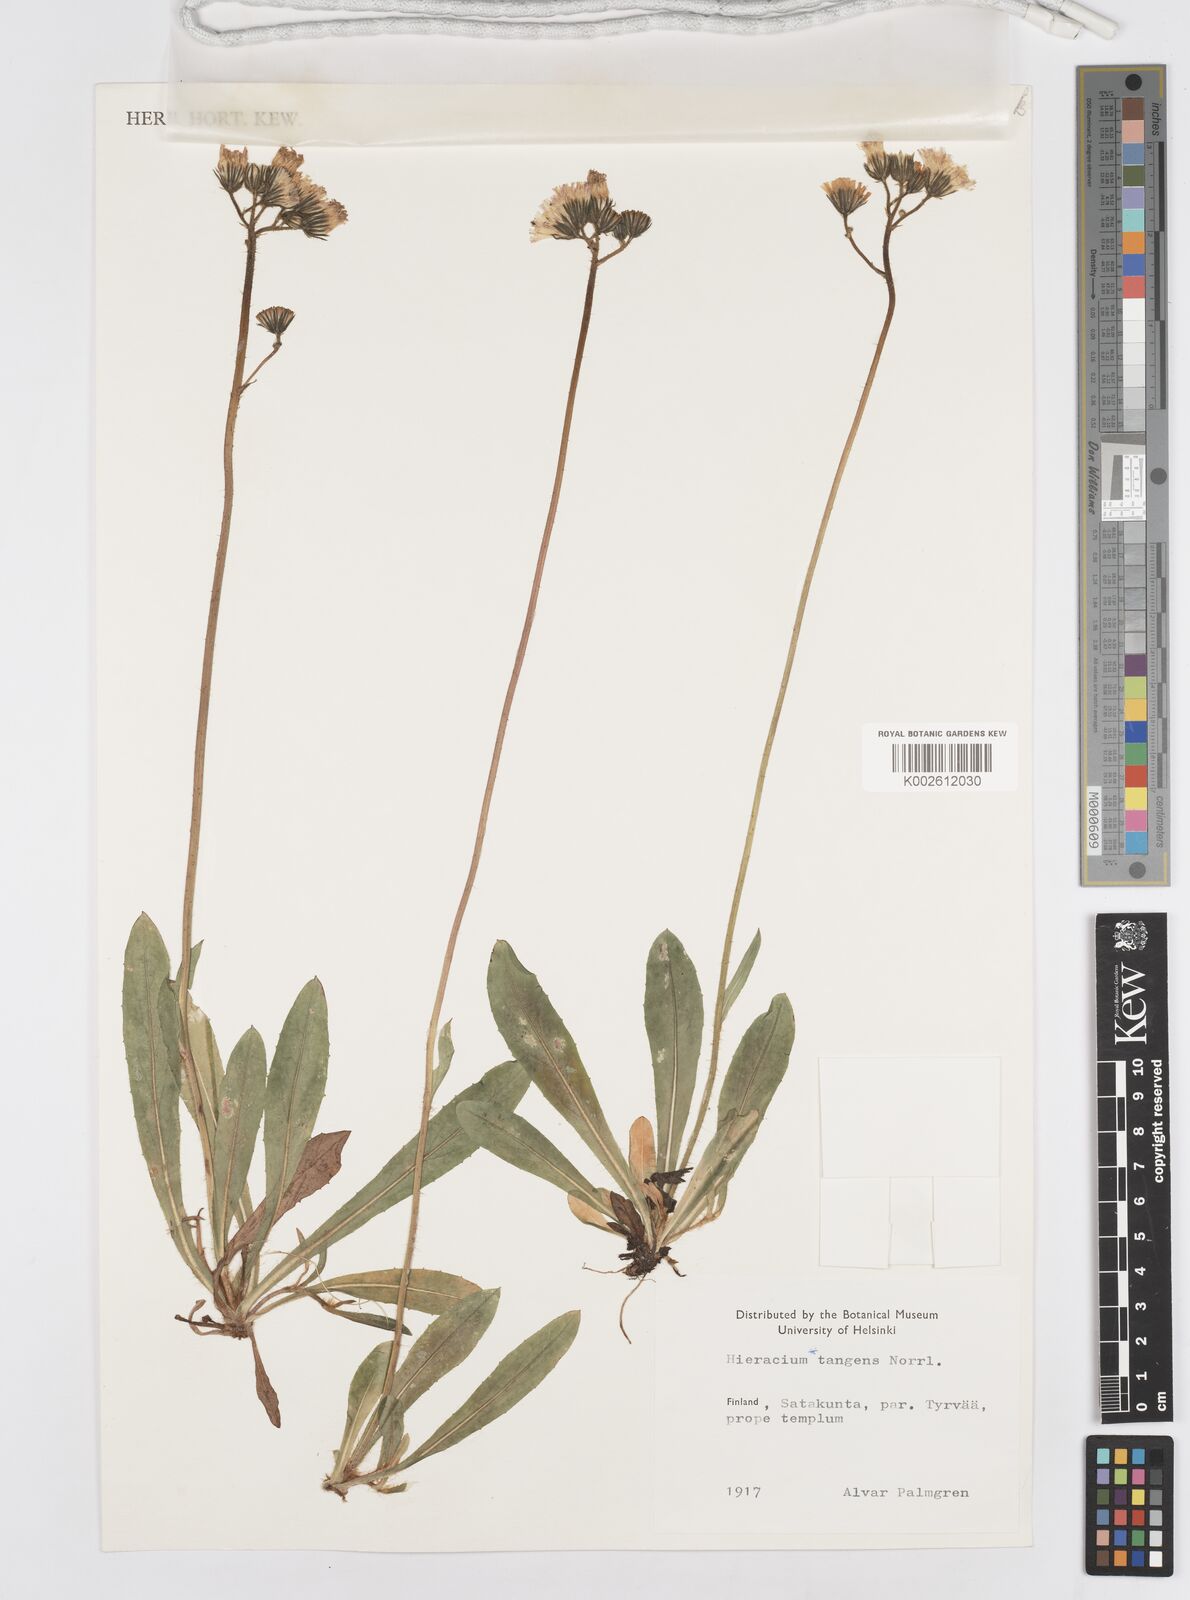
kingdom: Plantae
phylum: Tracheophyta
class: Magnoliopsida
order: Asterales
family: Asteraceae
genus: Hieracium
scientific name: Hieracium
